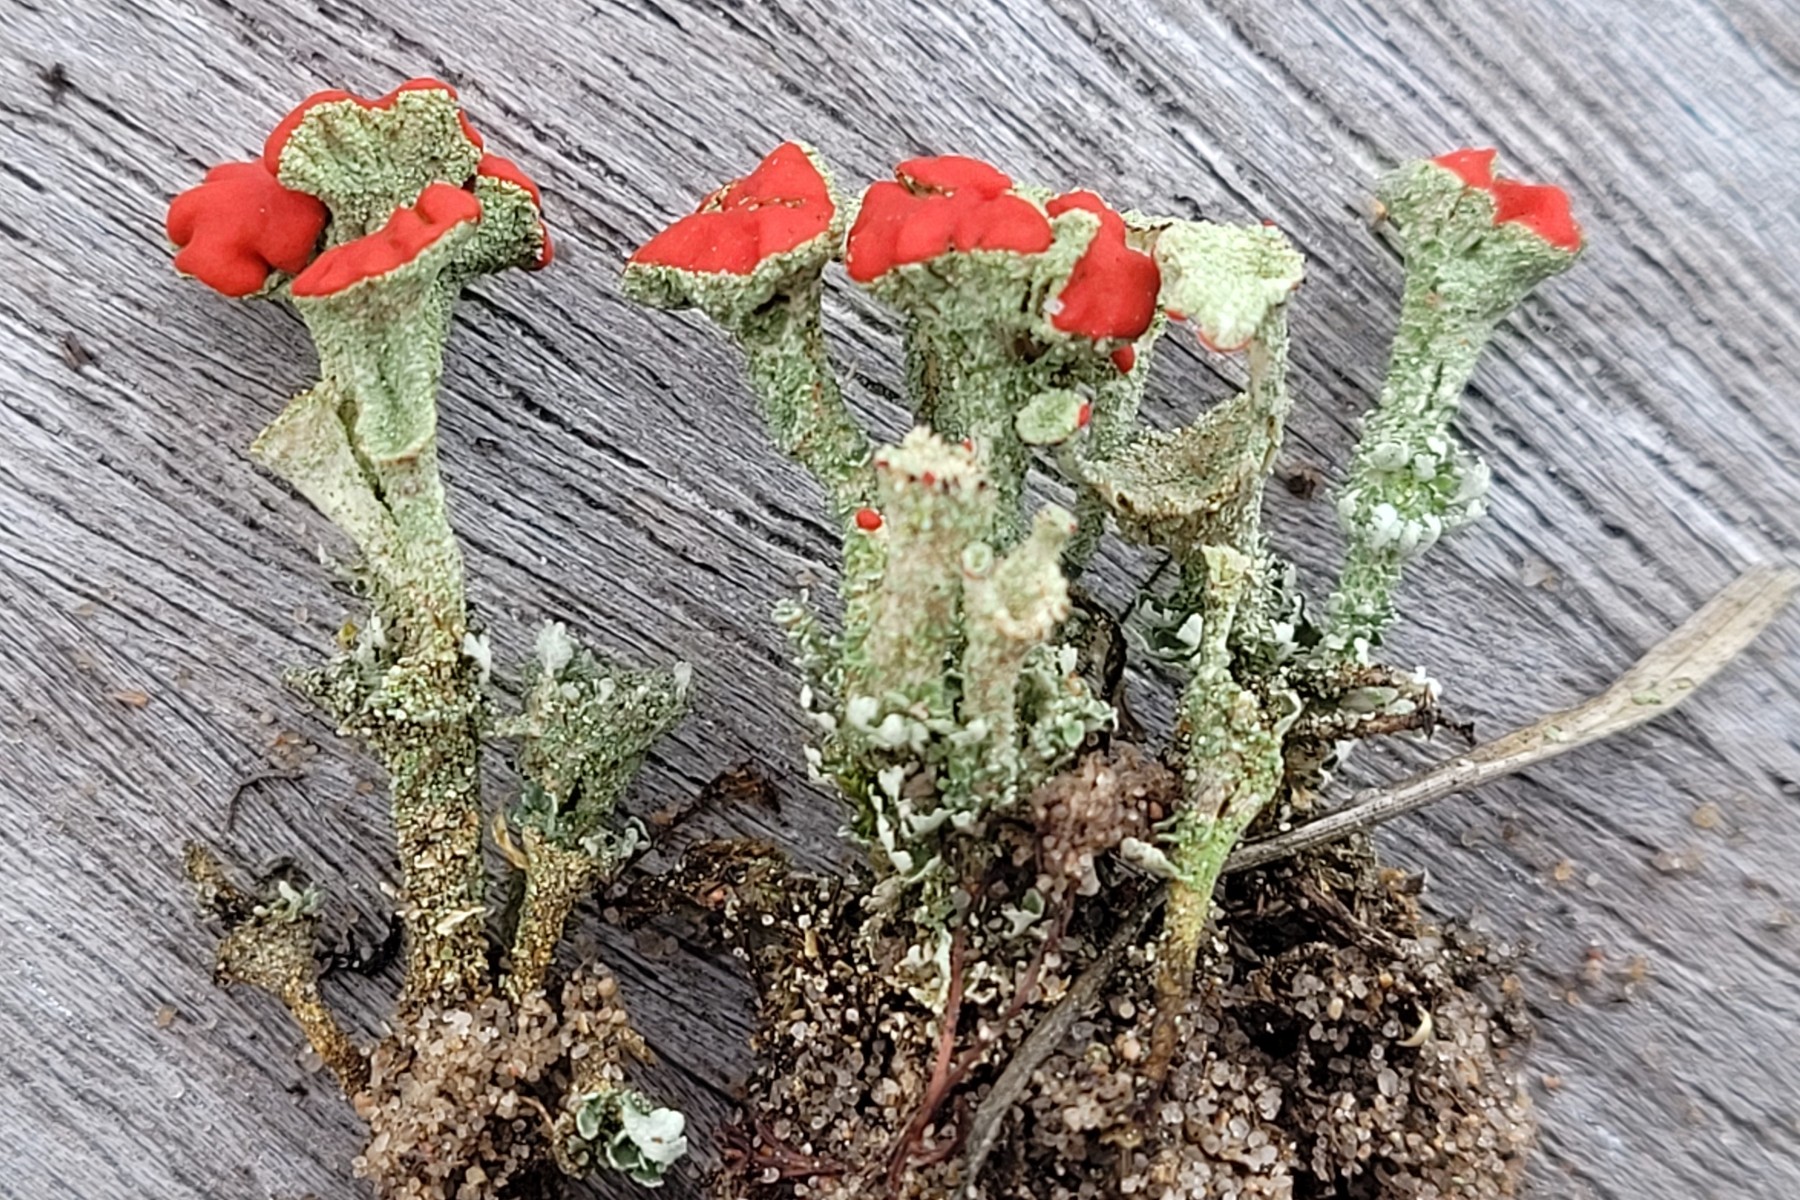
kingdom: Fungi
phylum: Ascomycota
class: Lecanoromycetes
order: Lecanorales
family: Cladoniaceae
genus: Cladonia
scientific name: Cladonia diversa
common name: rød bægerlav
